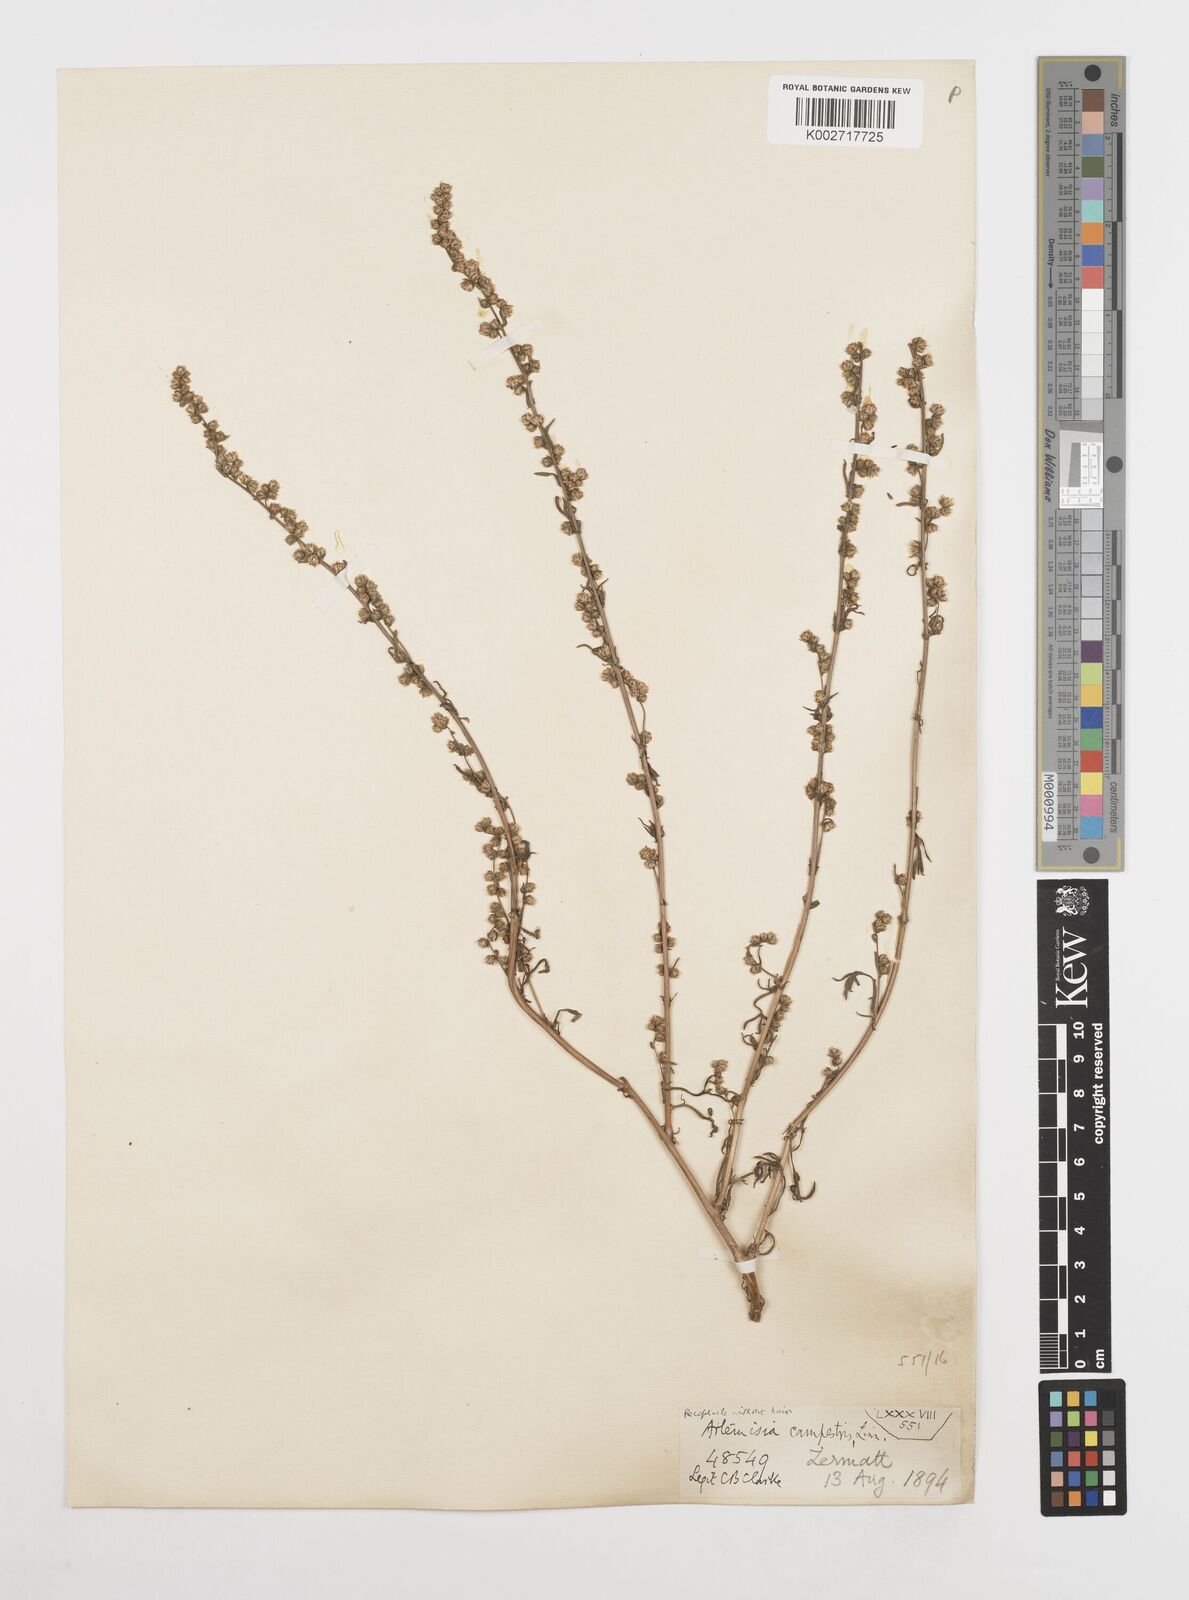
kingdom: Plantae
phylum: Tracheophyta
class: Magnoliopsida
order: Asterales
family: Asteraceae
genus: Artemisia
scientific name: Artemisia campestris
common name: Field wormwood
